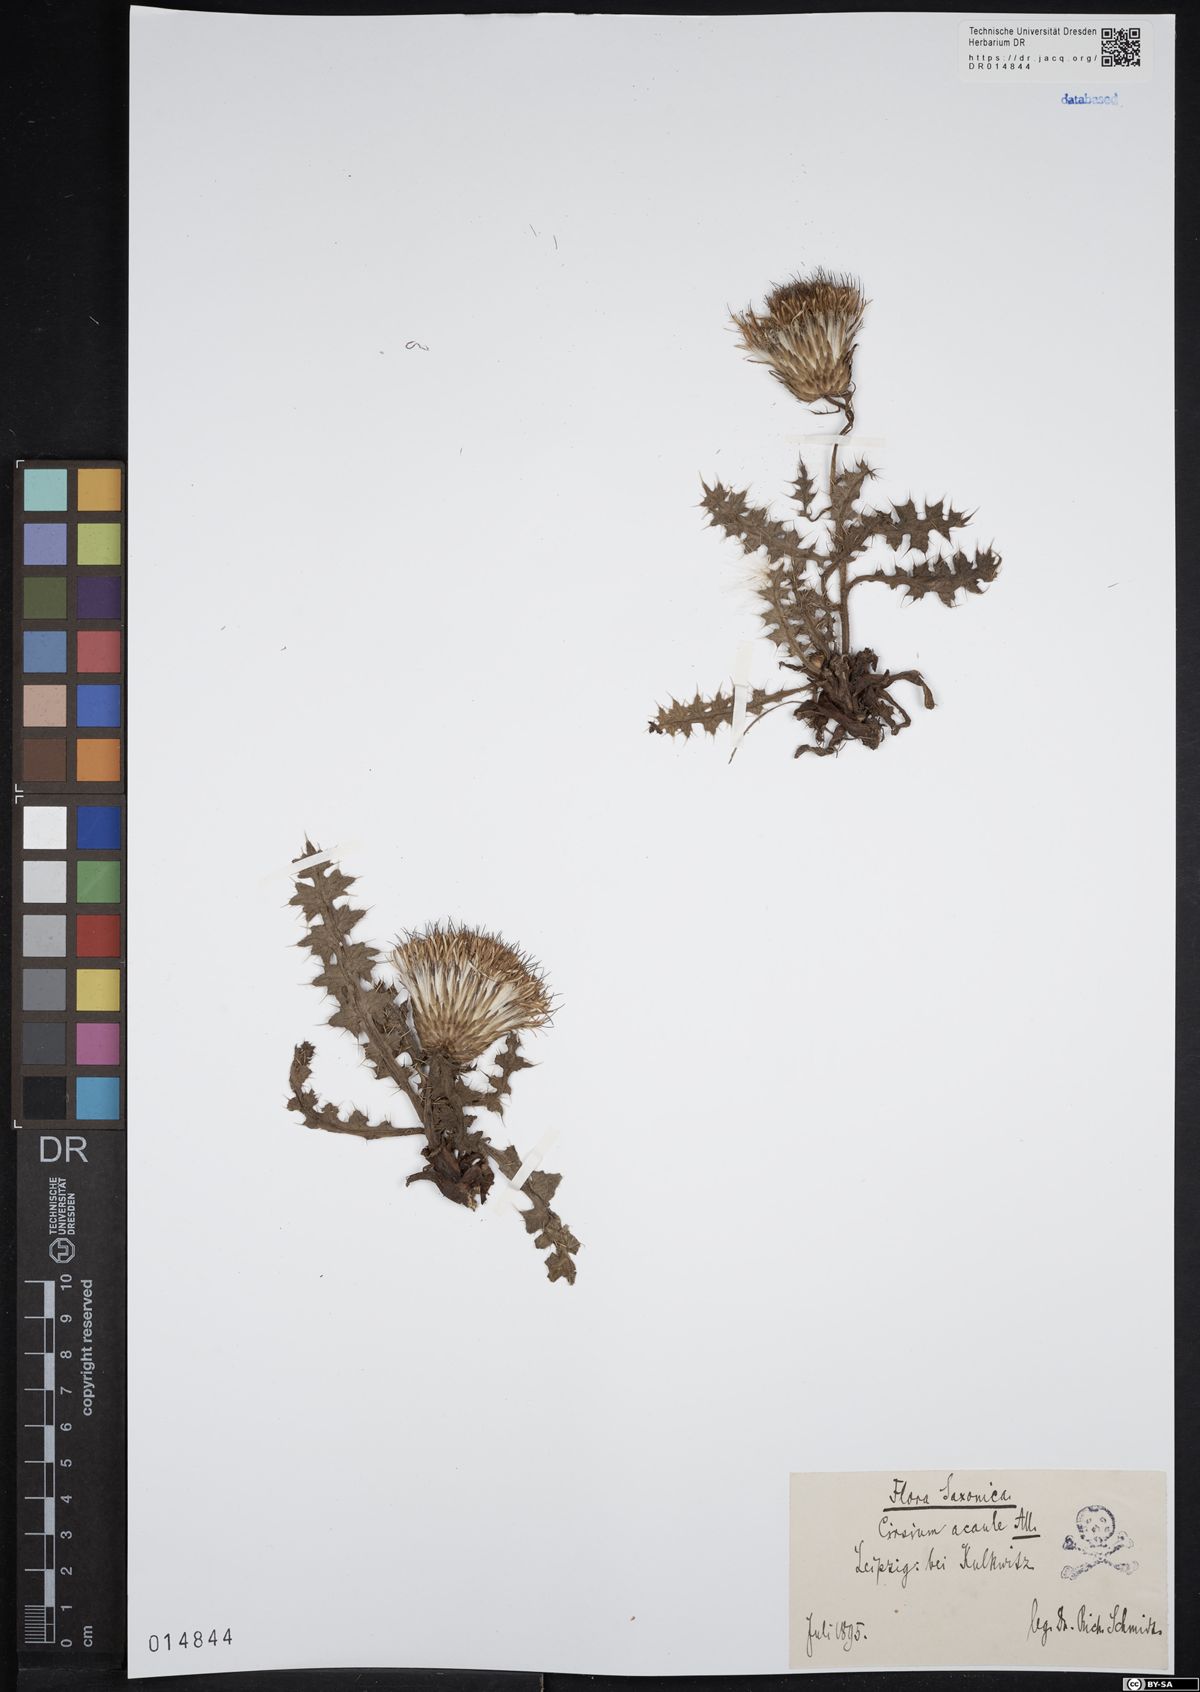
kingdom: Plantae
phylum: Tracheophyta
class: Magnoliopsida
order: Asterales
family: Asteraceae
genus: Cirsium
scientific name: Cirsium acaule
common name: Dwarf thistle
